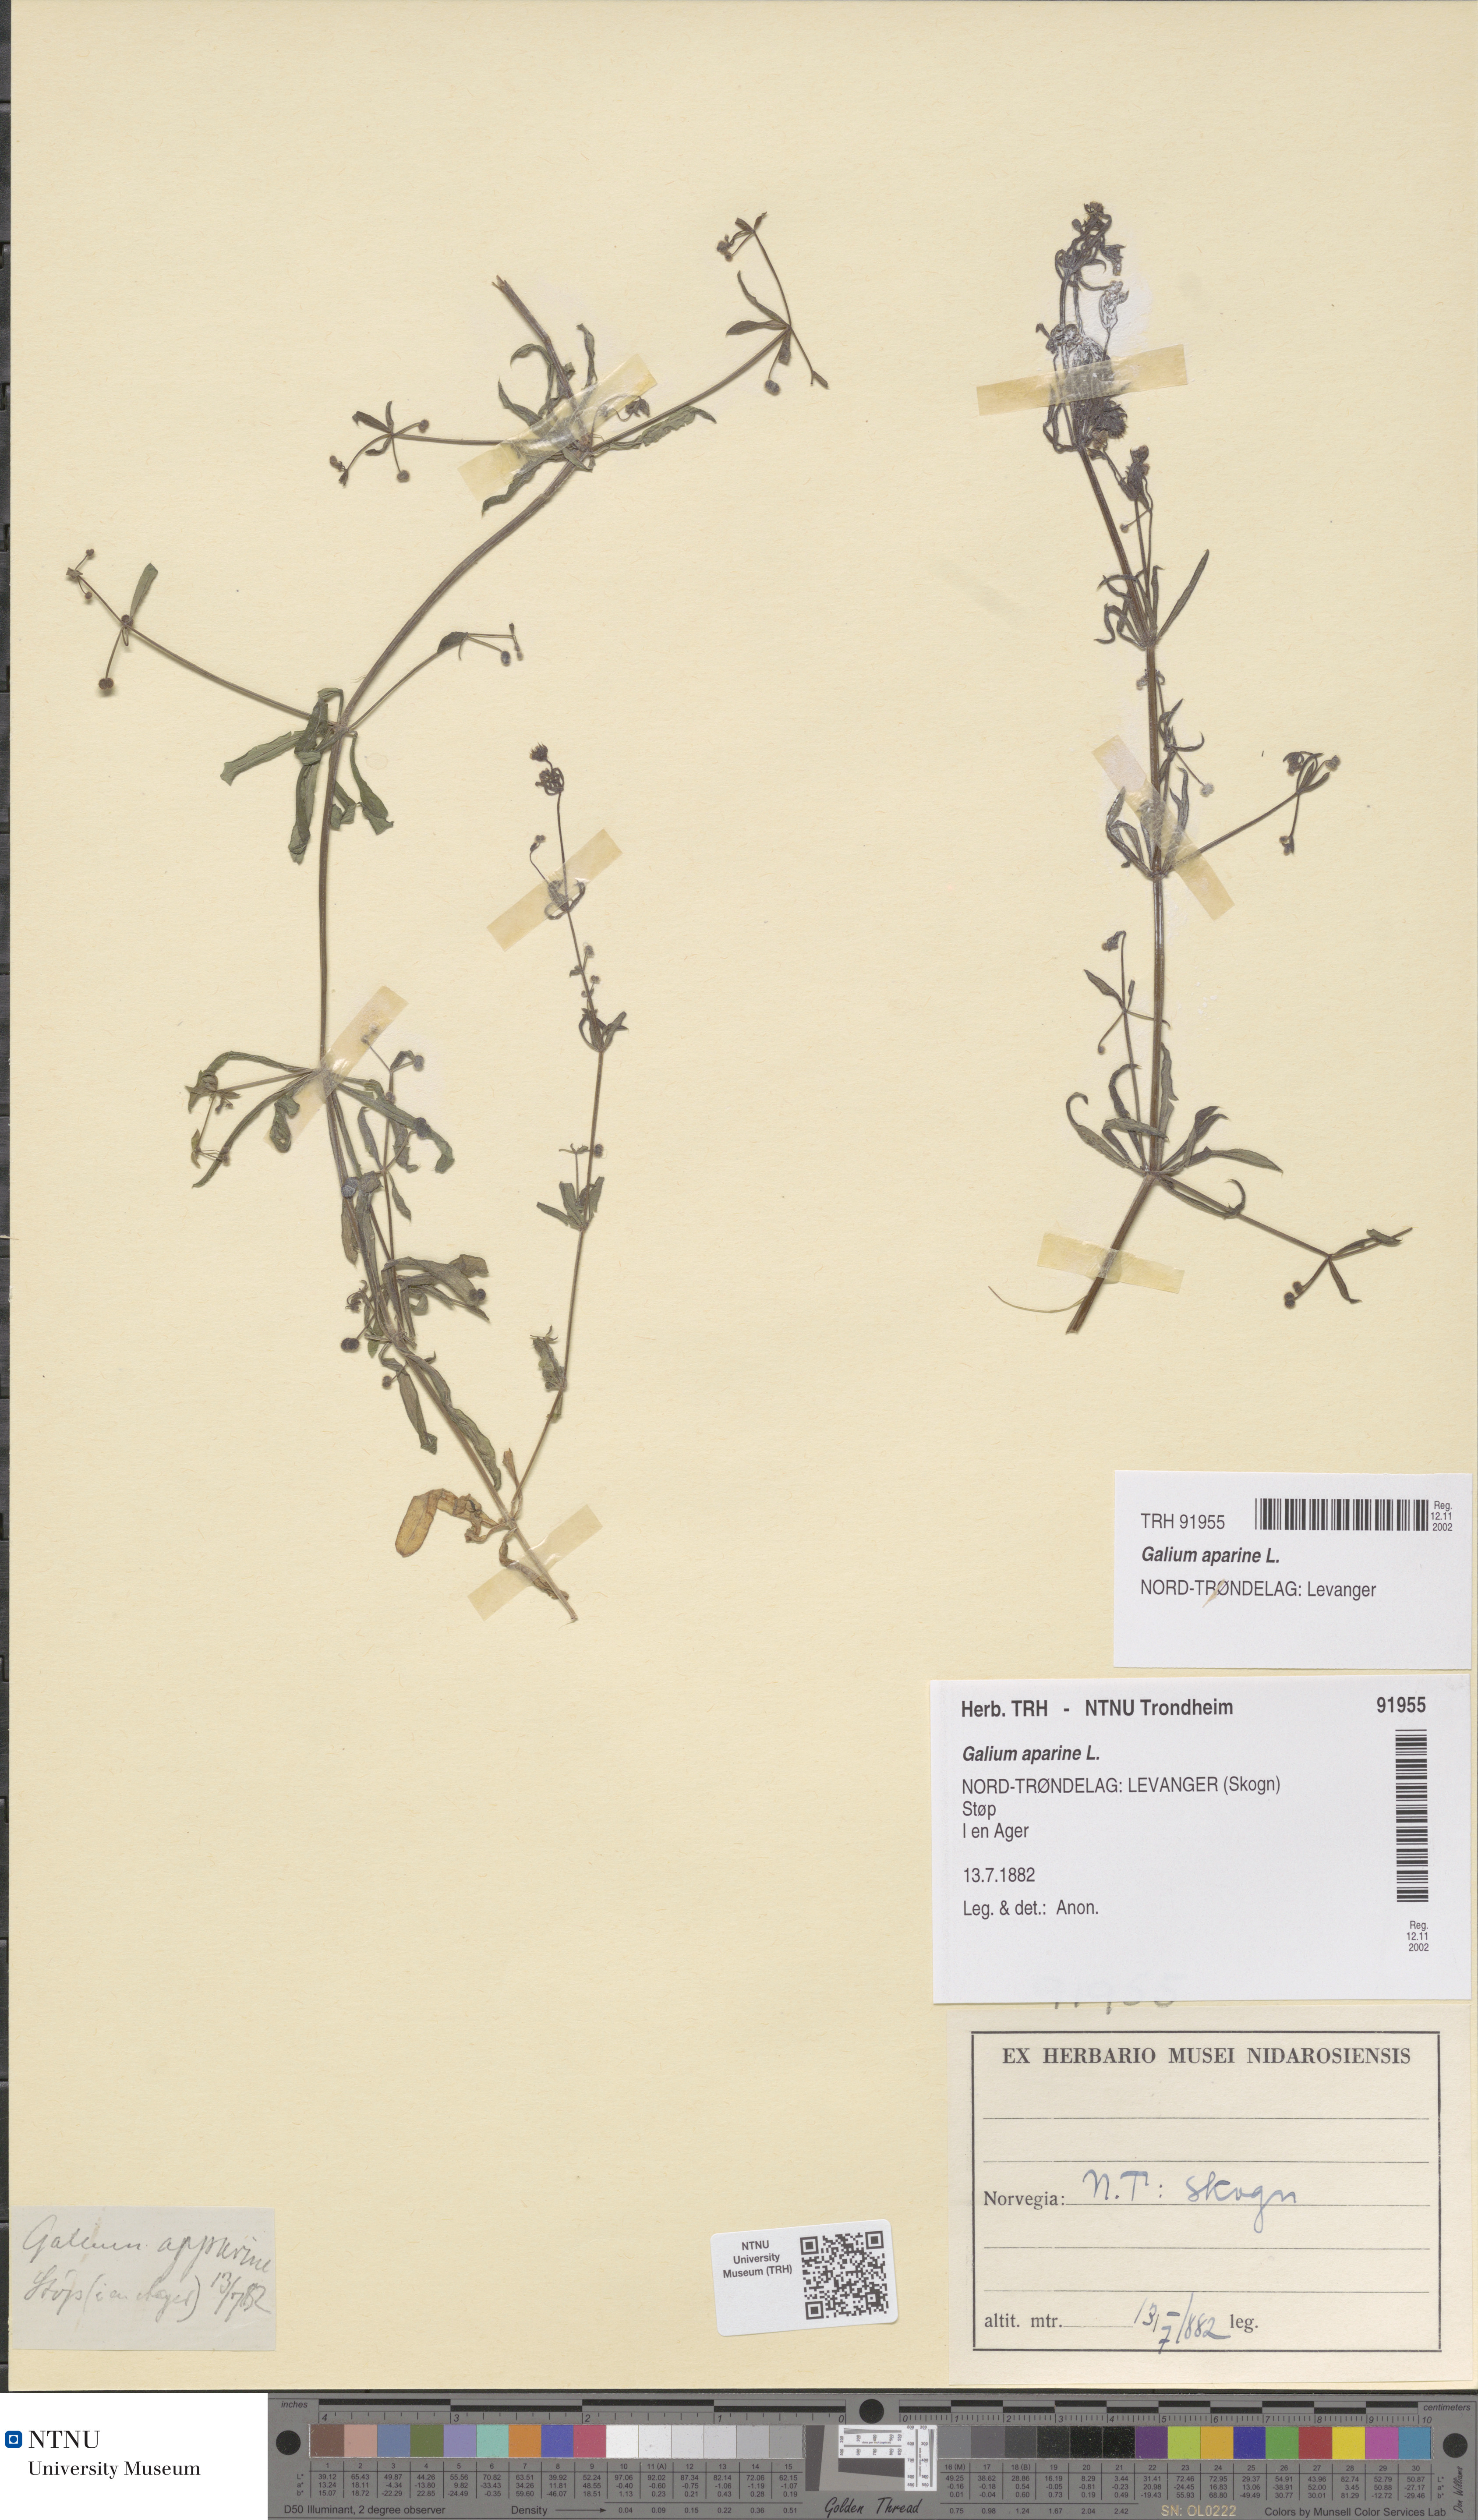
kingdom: Plantae
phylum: Tracheophyta
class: Magnoliopsida
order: Gentianales
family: Rubiaceae
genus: Galium
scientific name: Galium aparine
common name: Cleavers
